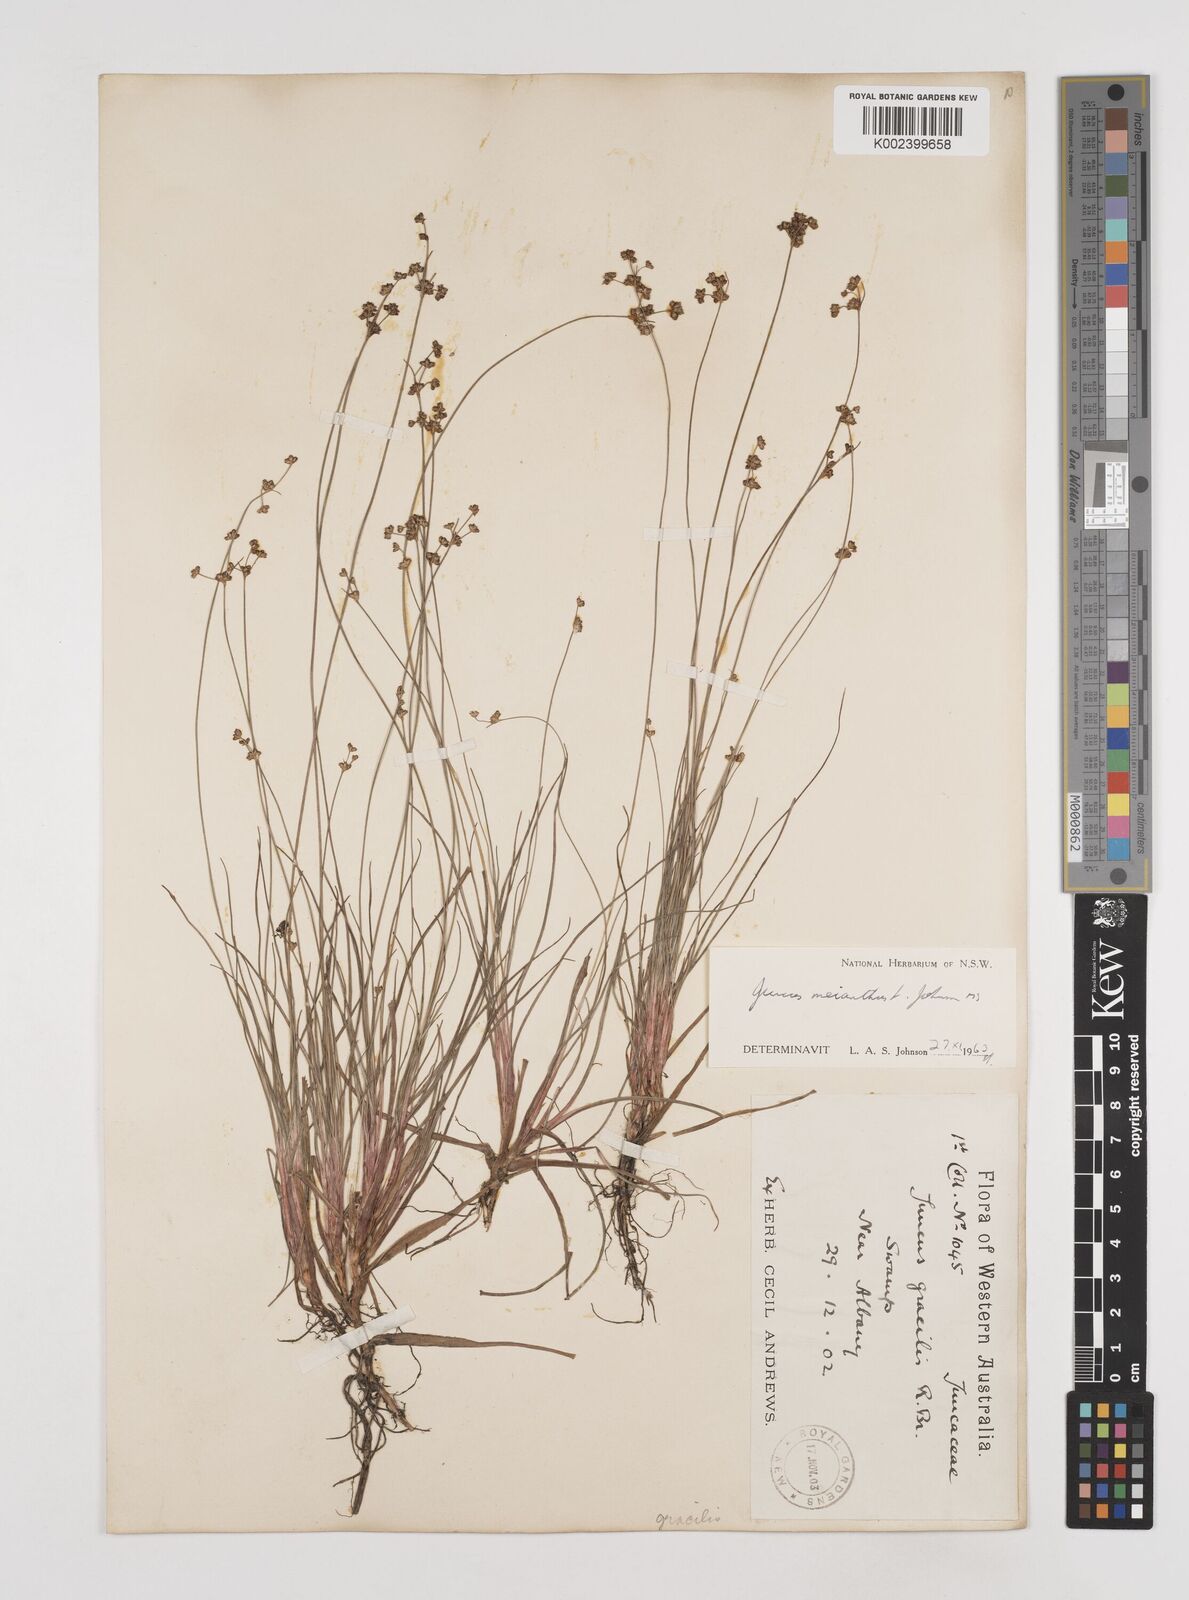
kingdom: Plantae
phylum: Tracheophyta
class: Liliopsida
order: Poales
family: Juncaceae
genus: Juncus
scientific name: Juncus meianthus
